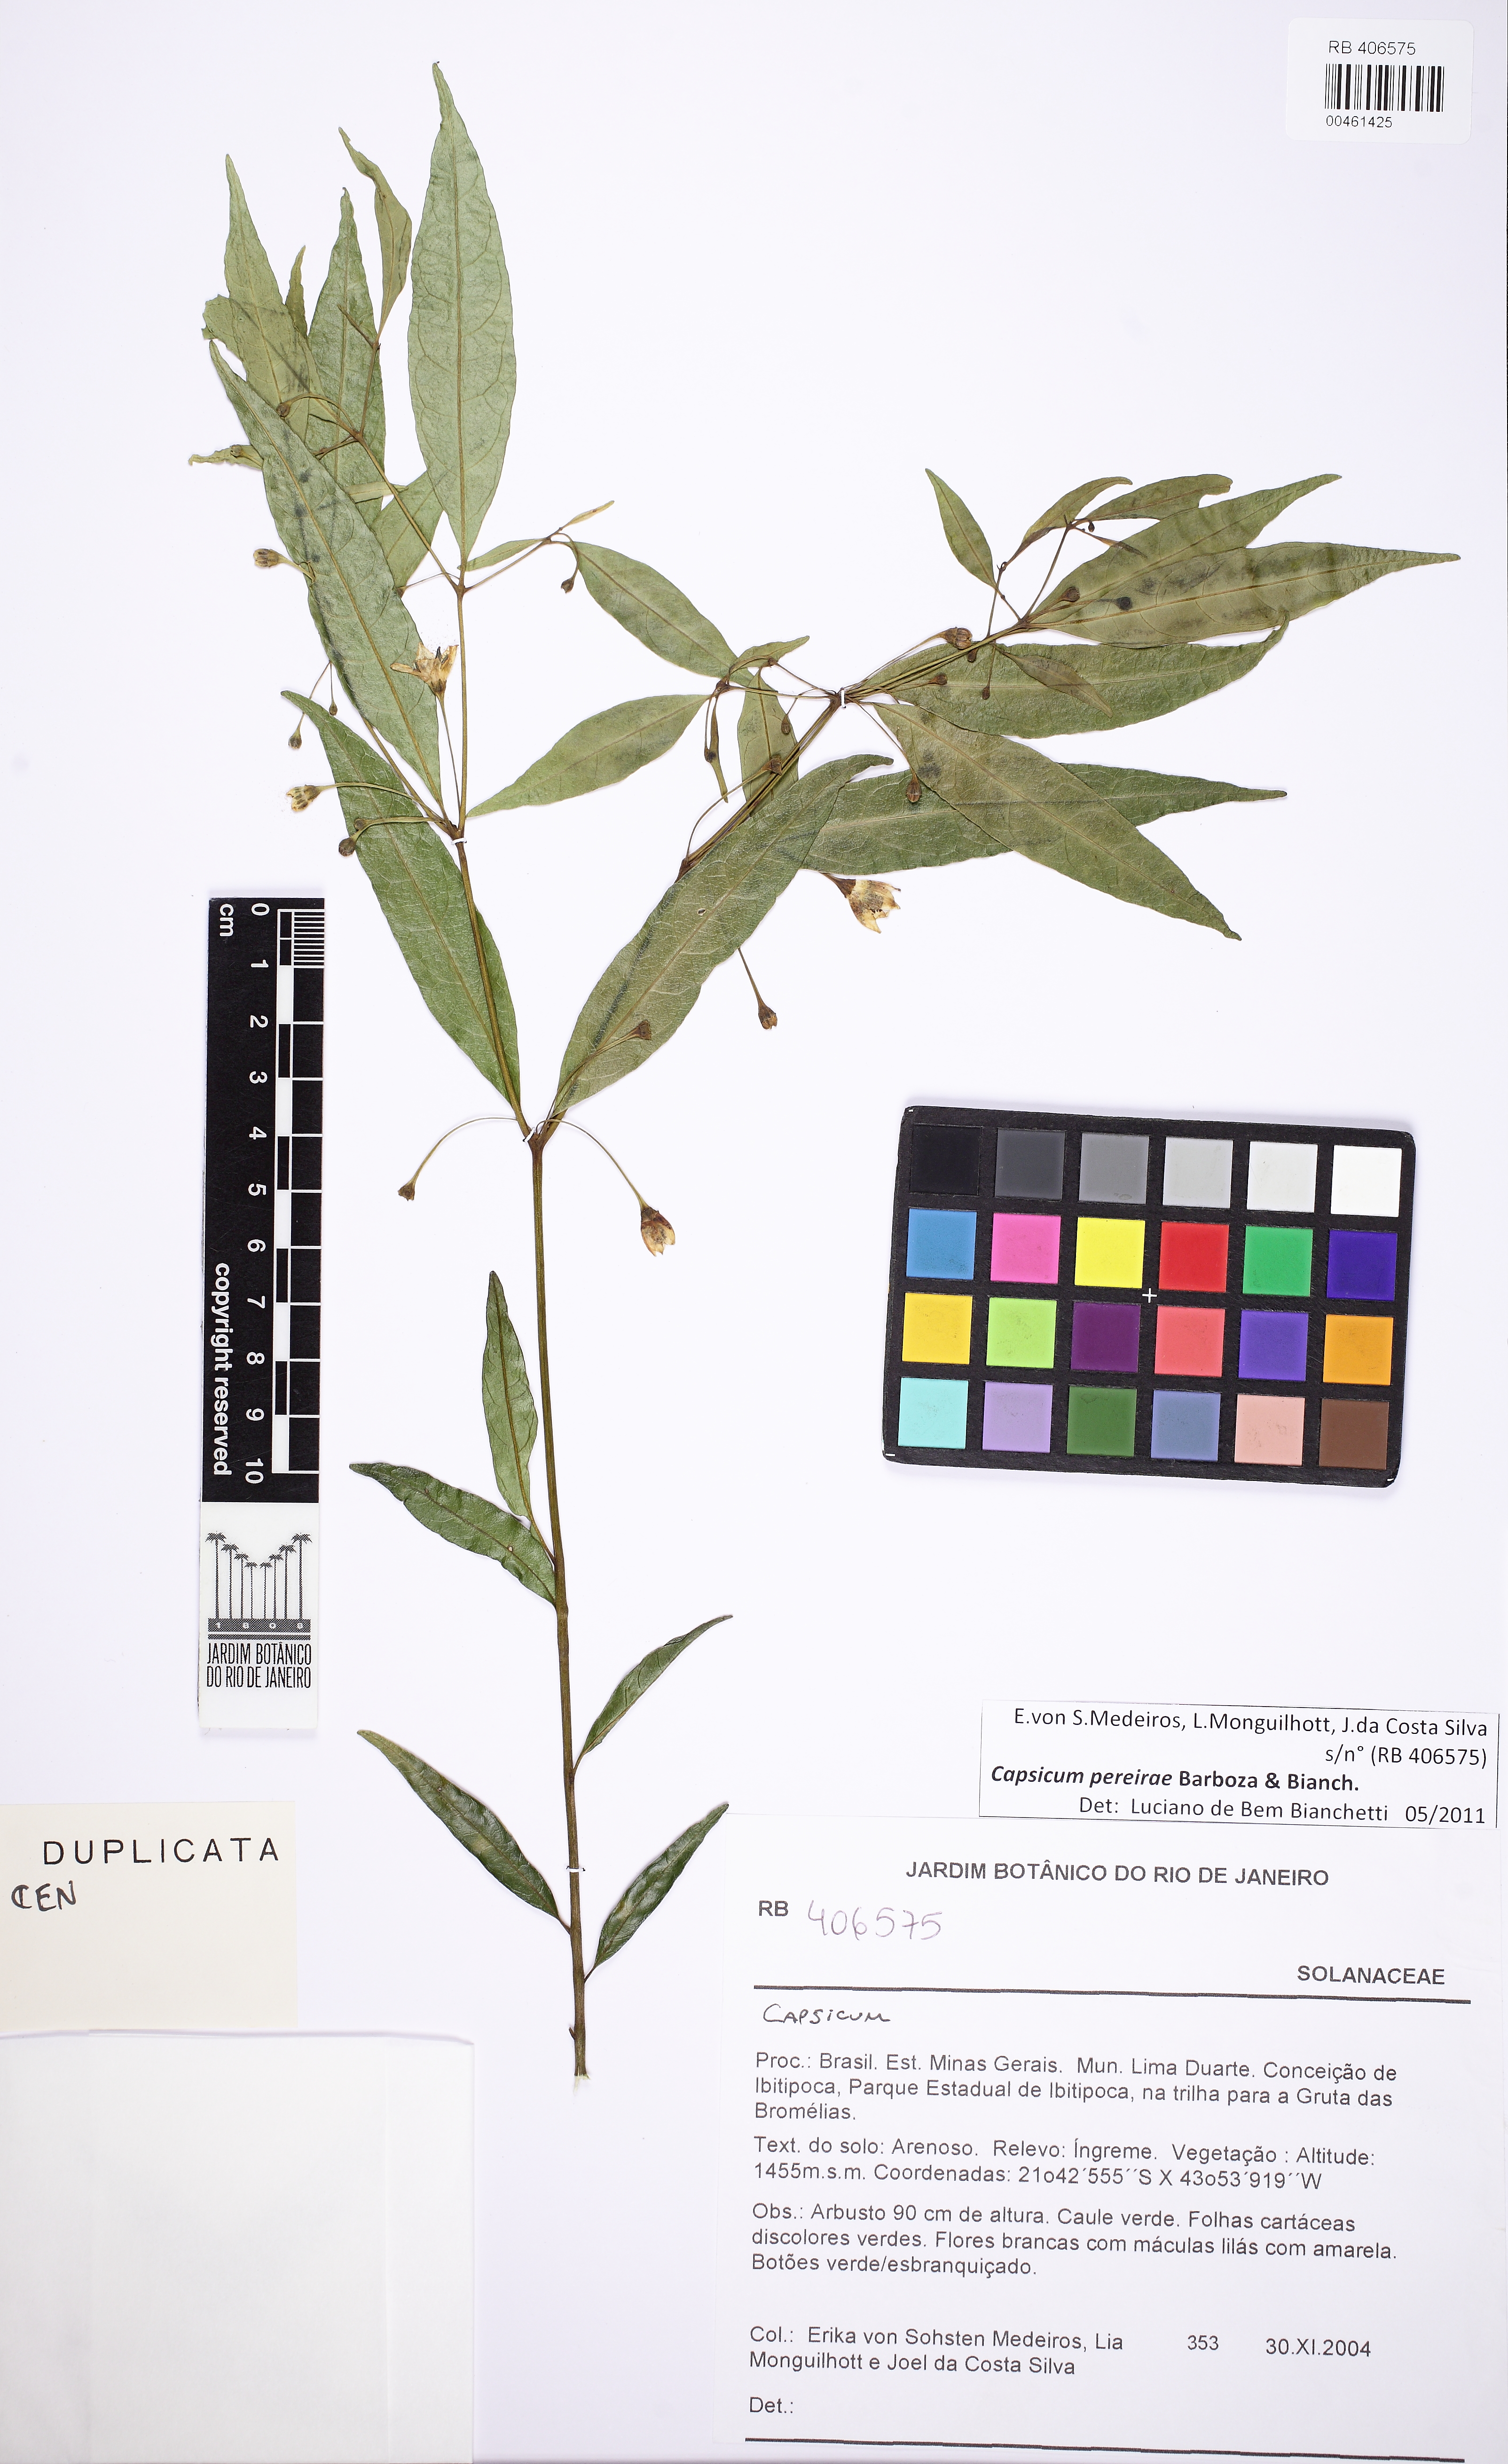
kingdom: Plantae
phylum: Tracheophyta
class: Magnoliopsida
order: Solanales
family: Solanaceae
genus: Capsicum
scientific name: Capsicum pereirae
